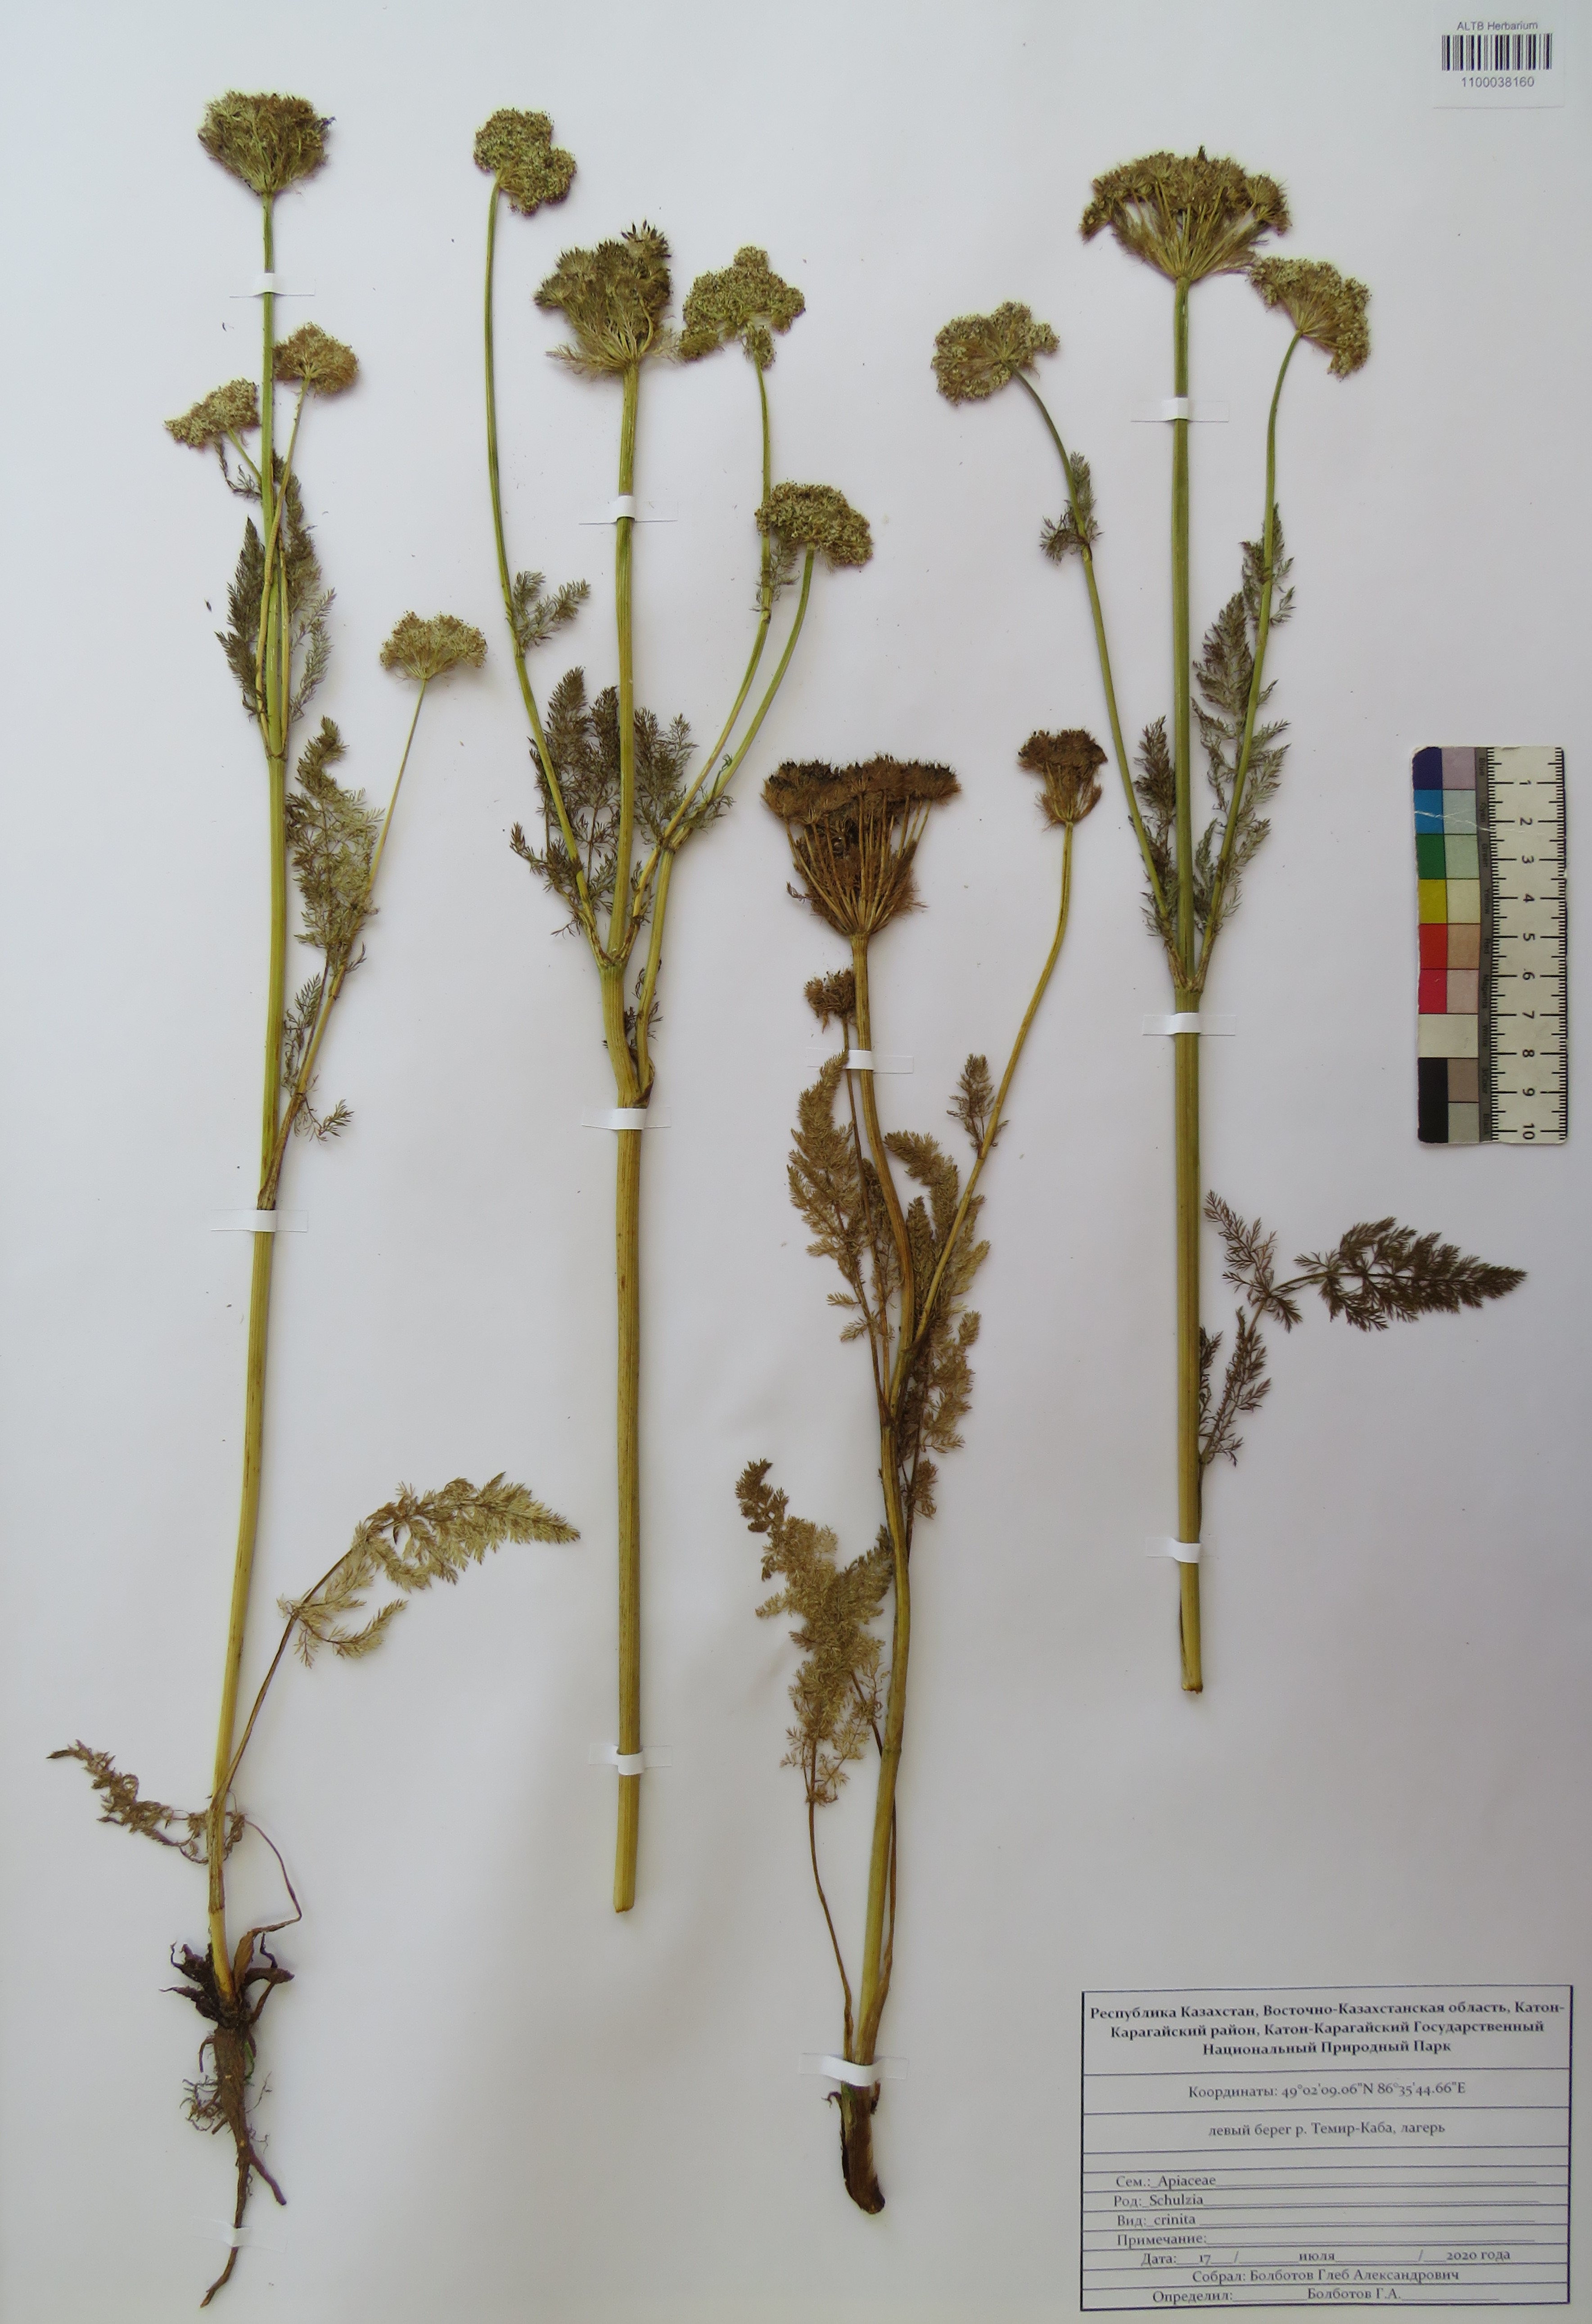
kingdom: Plantae
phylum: Tracheophyta
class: Magnoliopsida
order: Apiales
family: Apiaceae
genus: Schulzia
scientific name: Schulzia crinita
